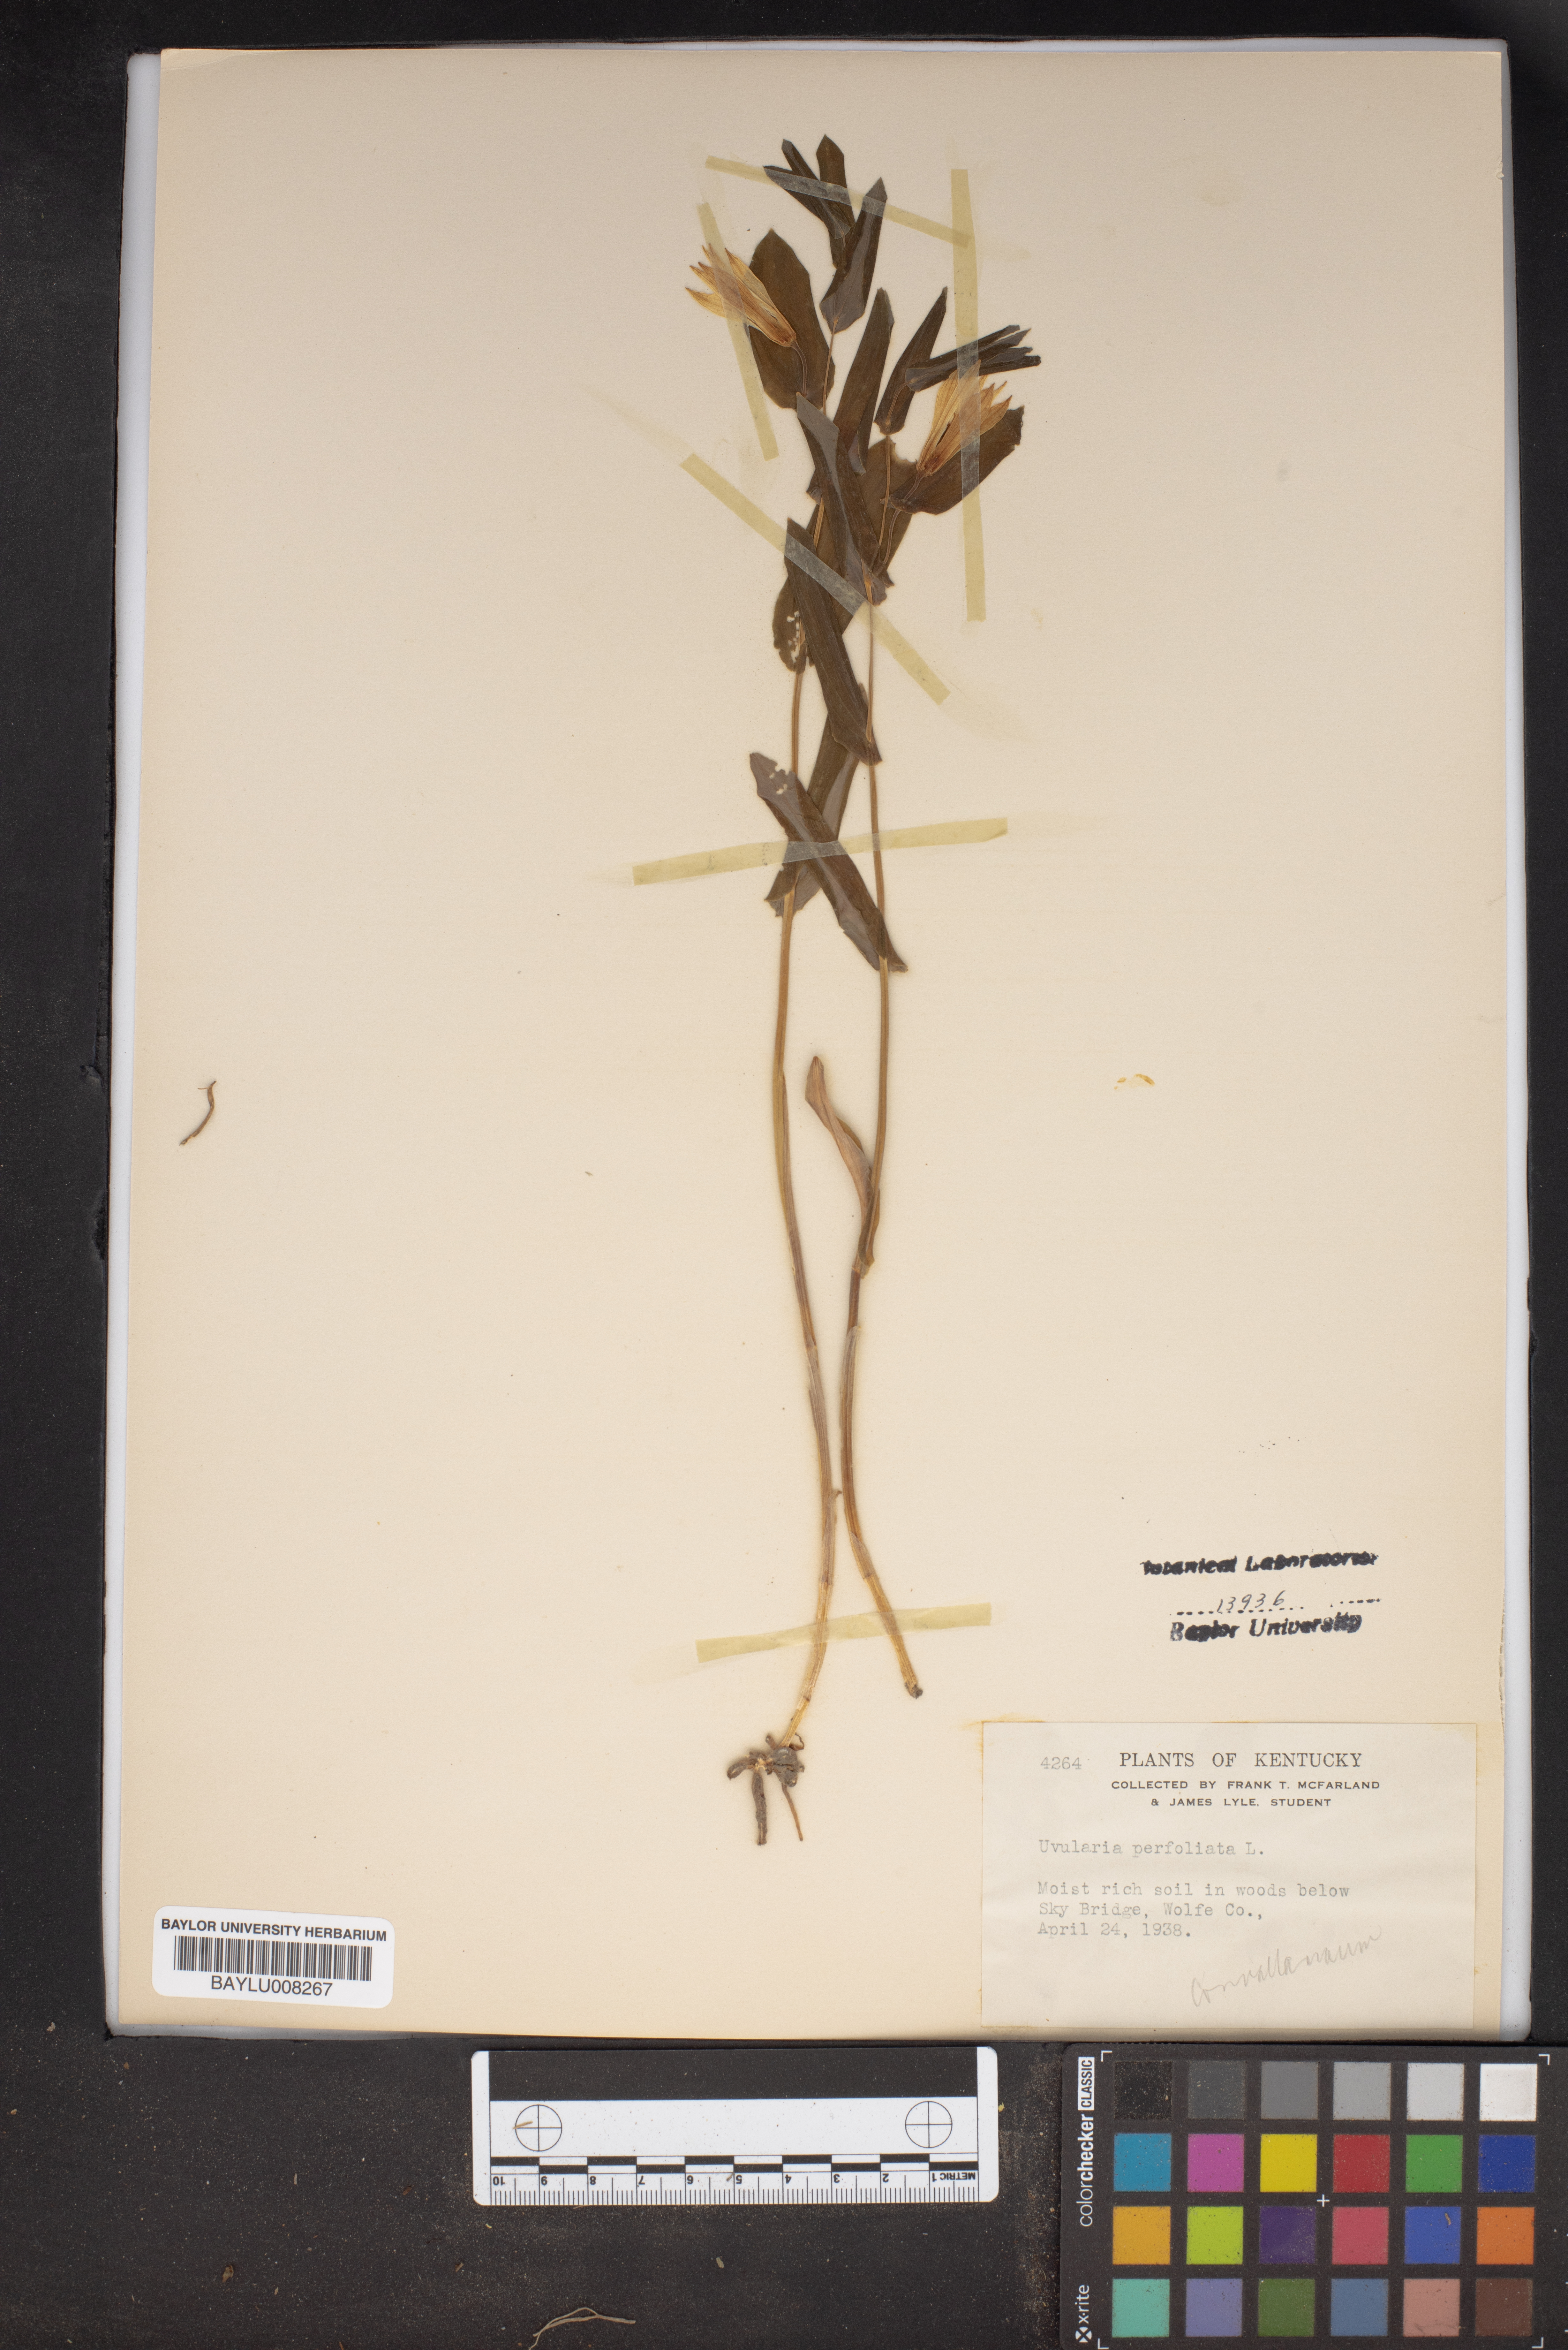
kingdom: Plantae
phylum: Tracheophyta
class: Liliopsida
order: Liliales
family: Colchicaceae
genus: Uvularia
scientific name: Uvularia perfoliata
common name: Perfoliate bellwort
